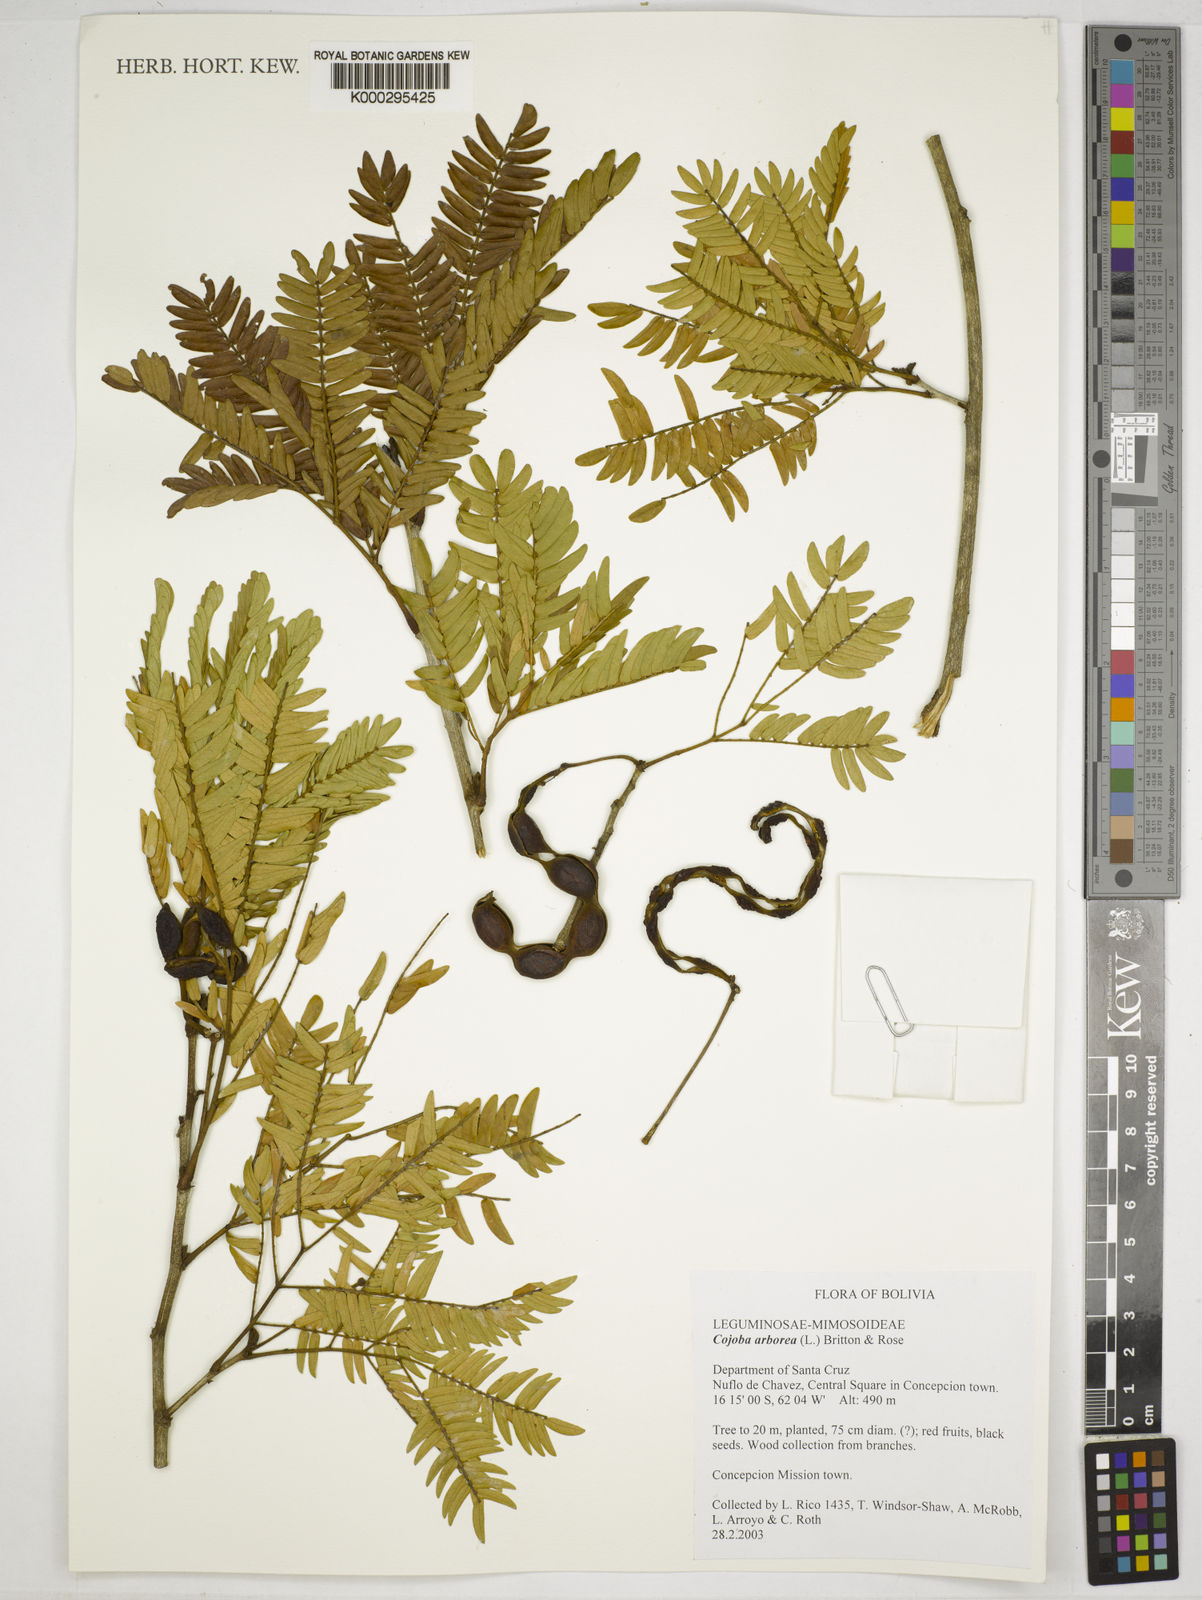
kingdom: Plantae
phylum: Tracheophyta
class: Magnoliopsida
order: Fabales
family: Fabaceae
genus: Cojoba
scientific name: Cojoba arborea
